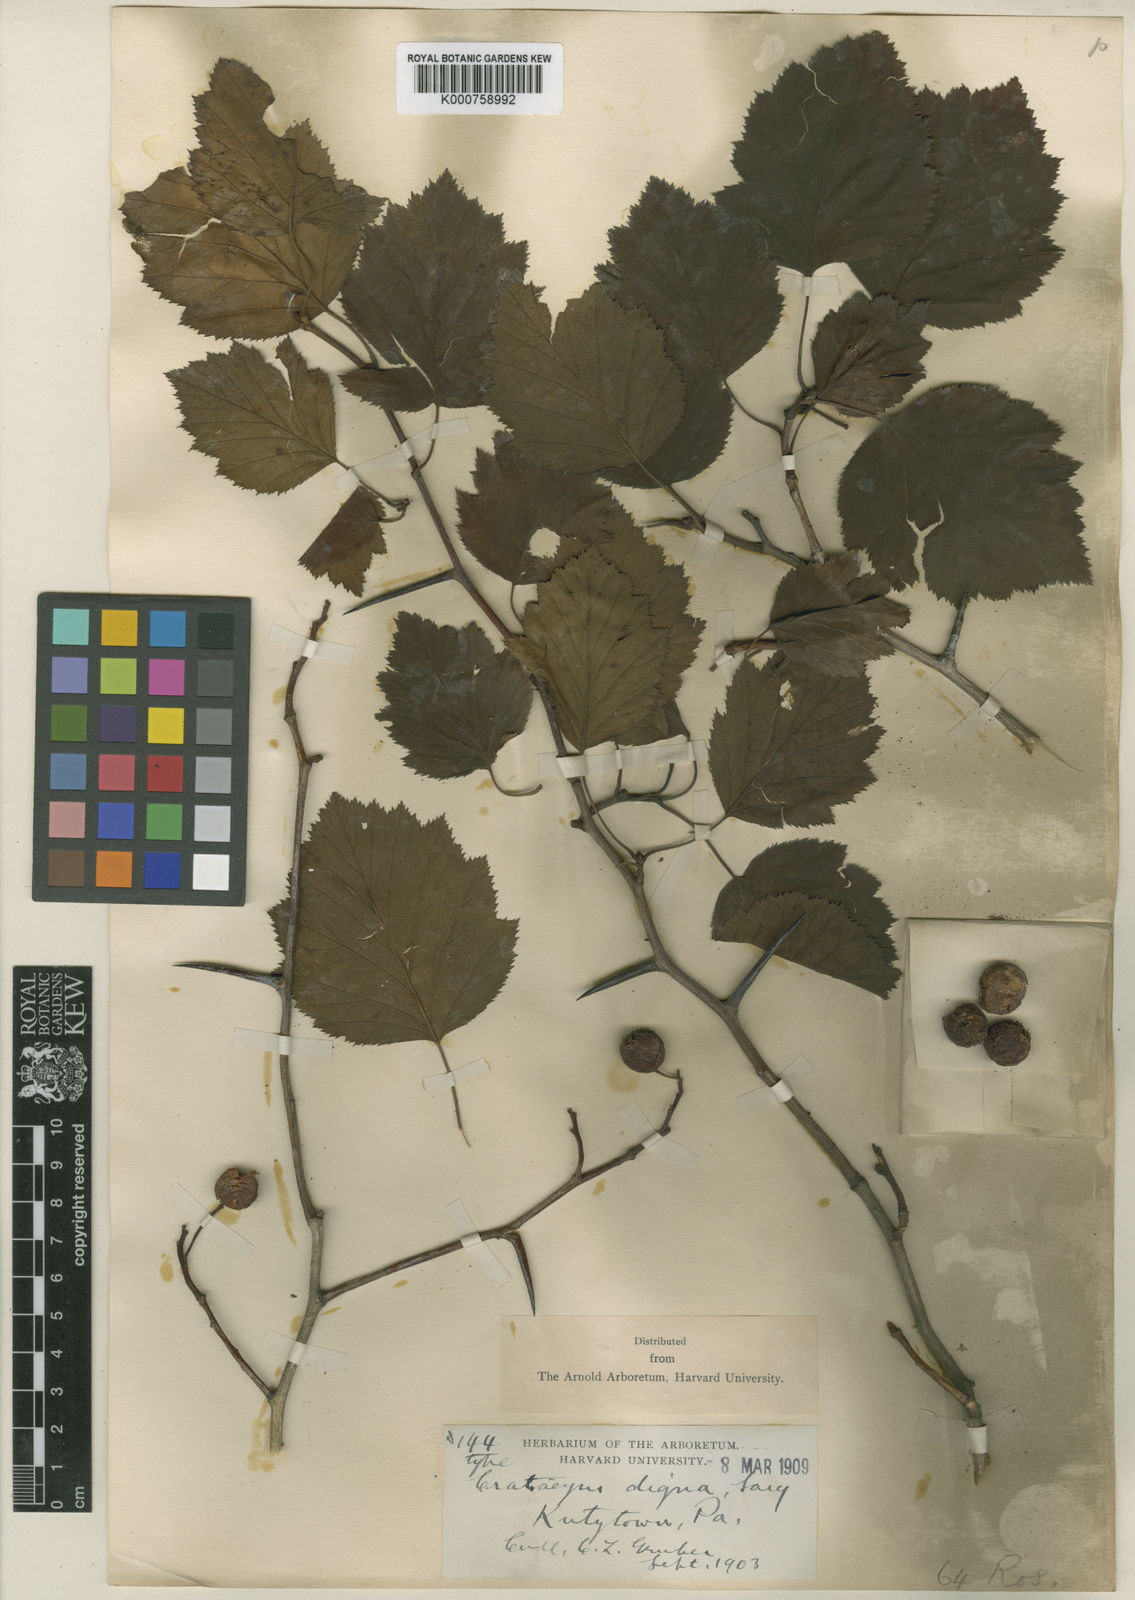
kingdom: Plantae
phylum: Tracheophyta
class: Magnoliopsida
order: Rosales
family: Rosaceae
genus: Crataegus
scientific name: Crataegus digna
